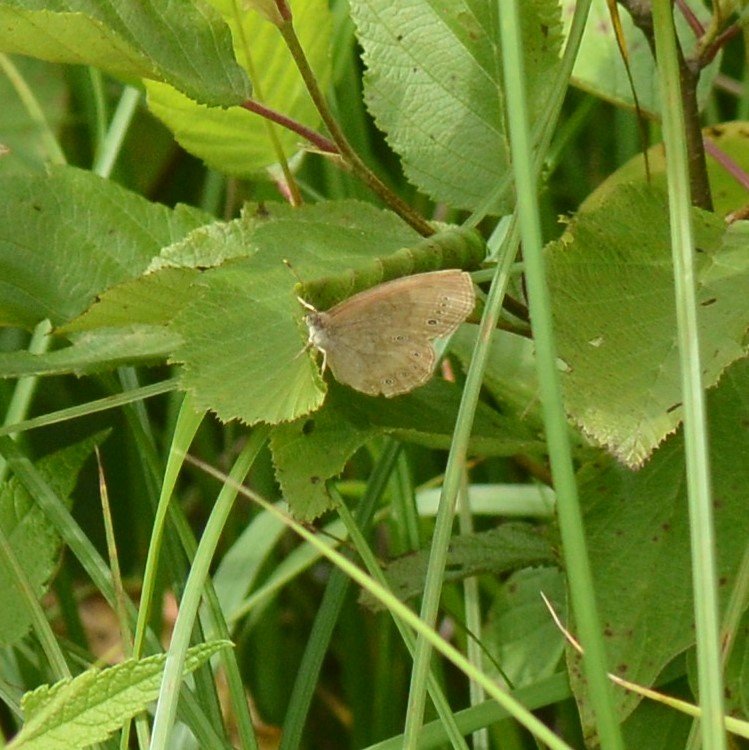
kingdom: Animalia
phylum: Arthropoda
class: Insecta
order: Lepidoptera
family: Nymphalidae
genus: Lethe
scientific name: Lethe eurydice
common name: Eyed Brown
